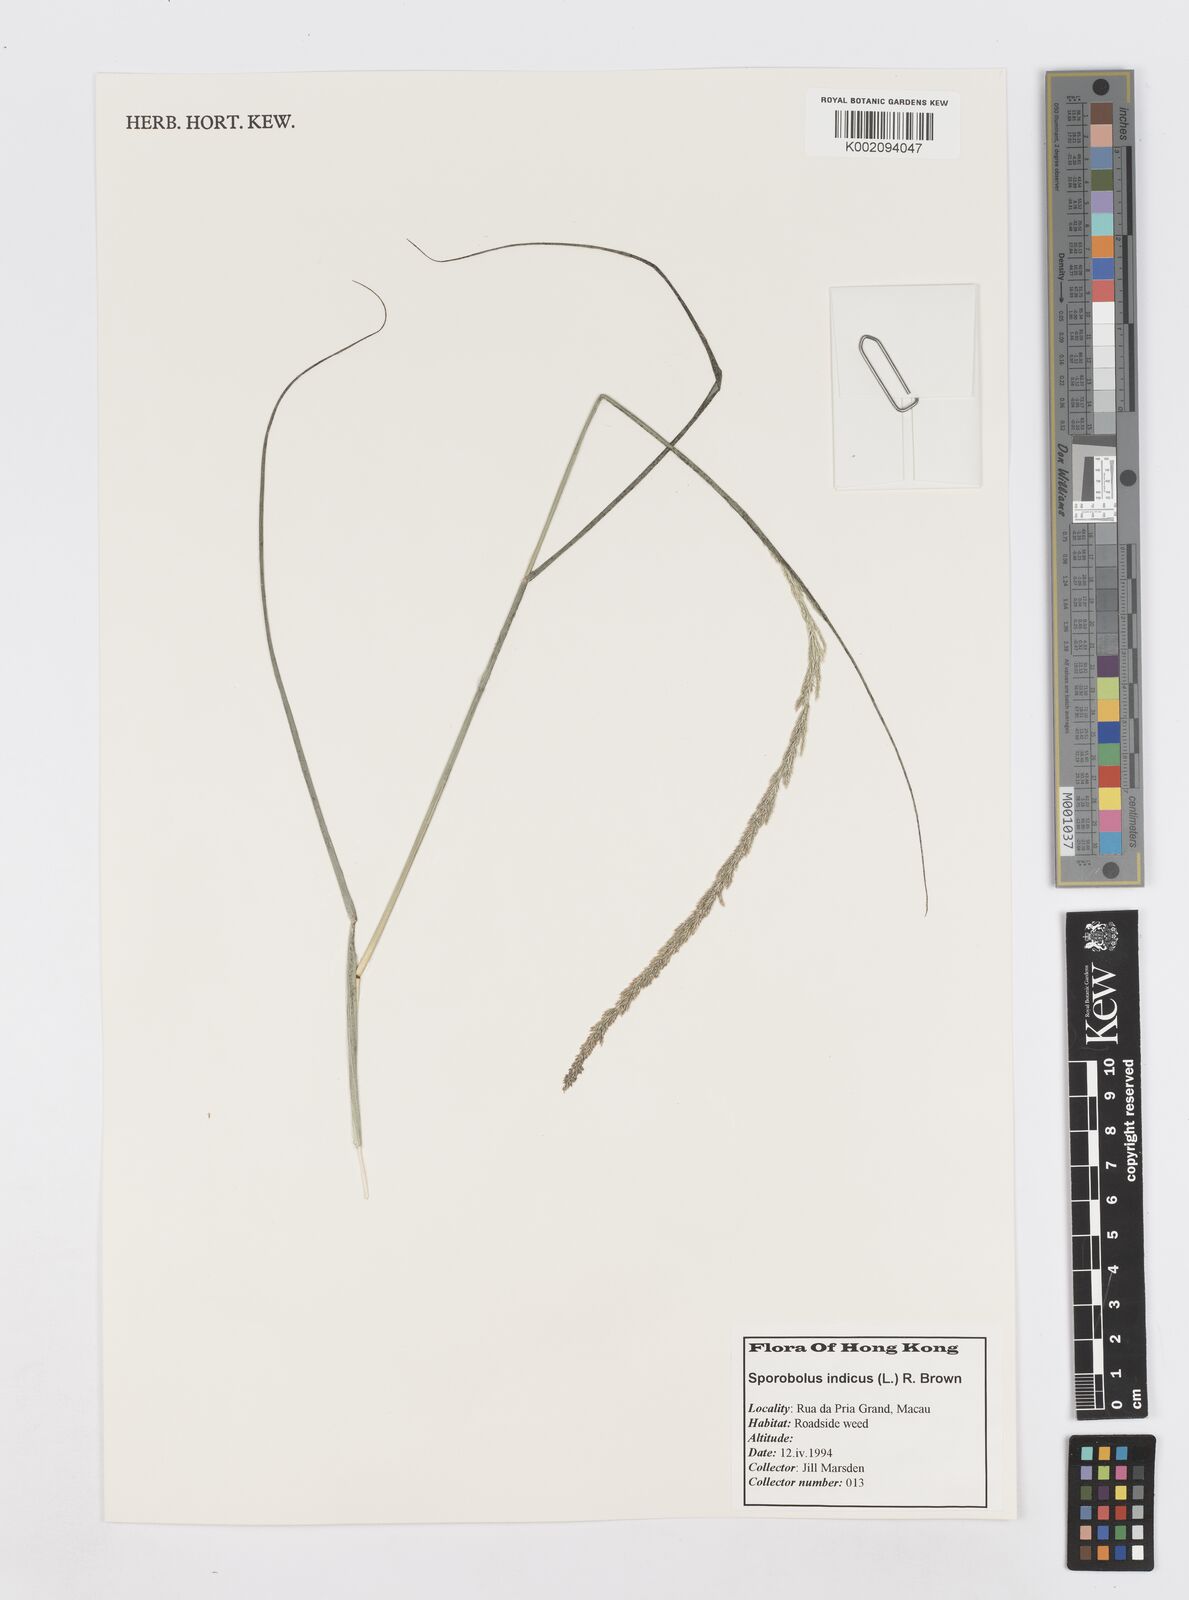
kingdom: Plantae
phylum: Tracheophyta
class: Liliopsida
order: Poales
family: Poaceae
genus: Sporobolus
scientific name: Sporobolus fertilis
